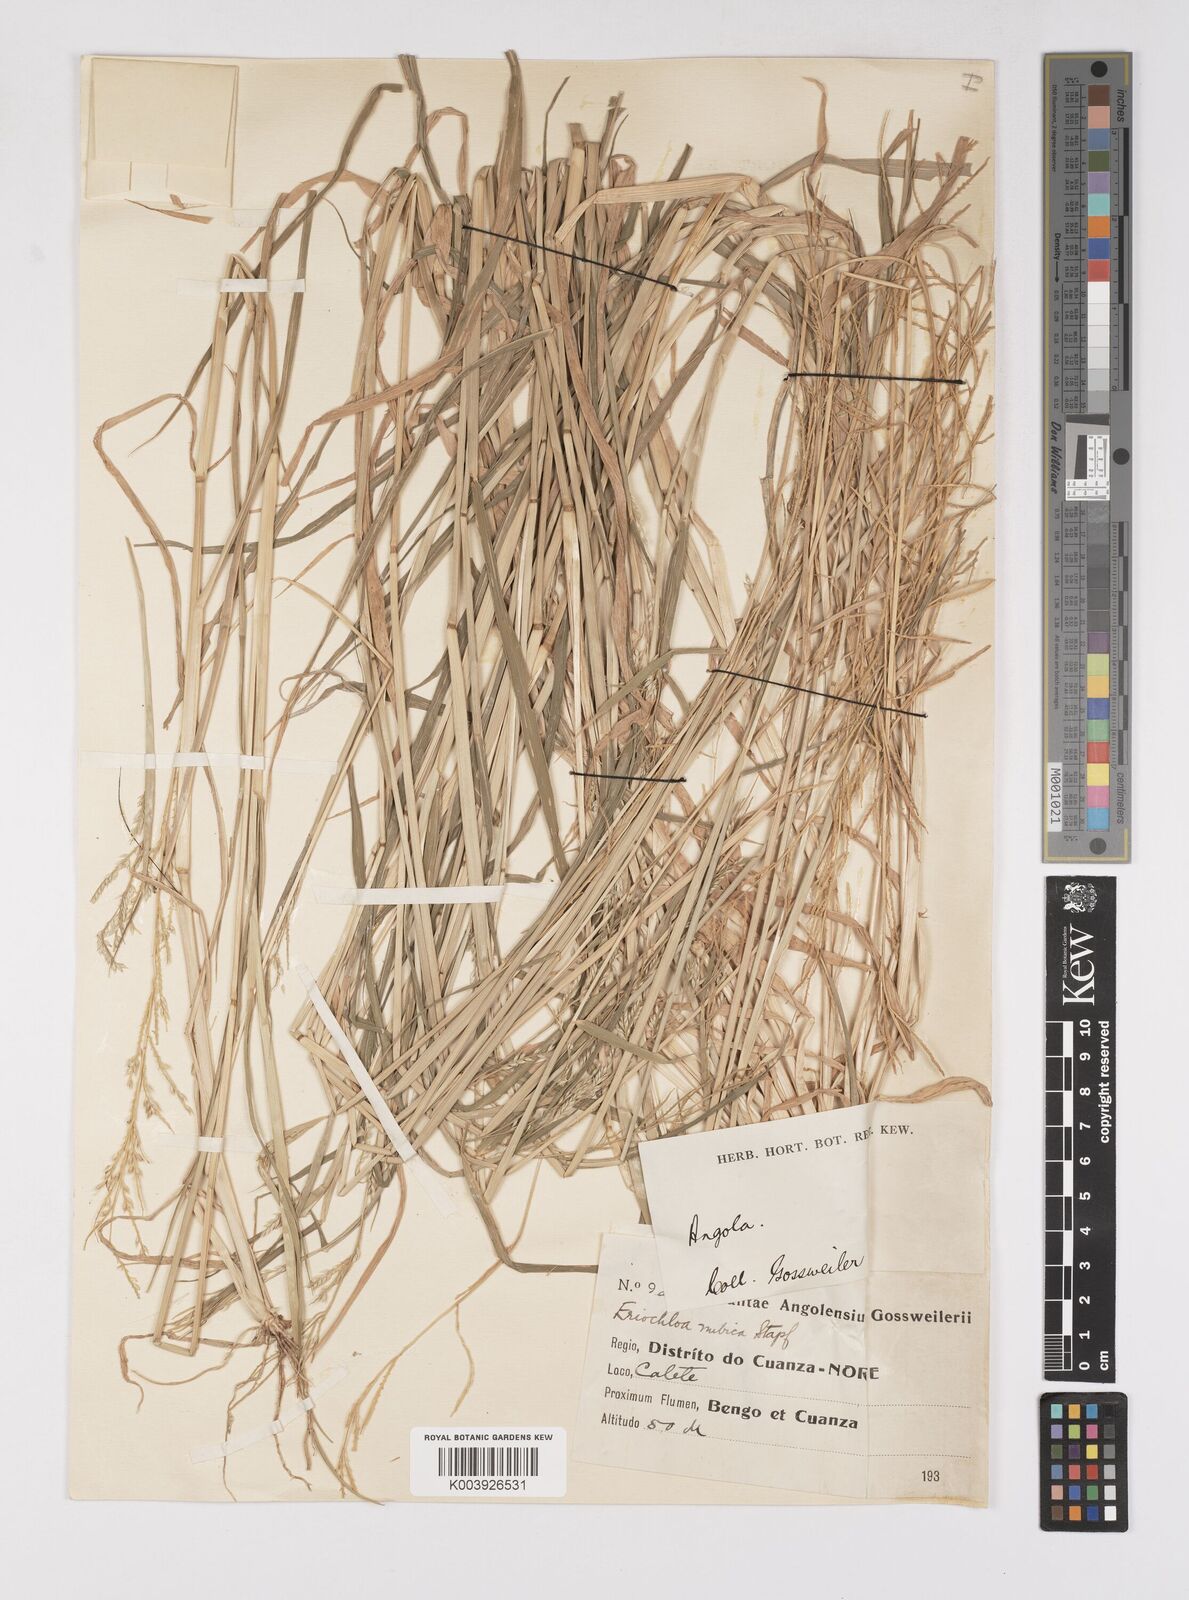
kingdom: Plantae
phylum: Tracheophyta
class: Liliopsida
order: Poales
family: Poaceae
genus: Eriochloa
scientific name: Eriochloa barbatus
